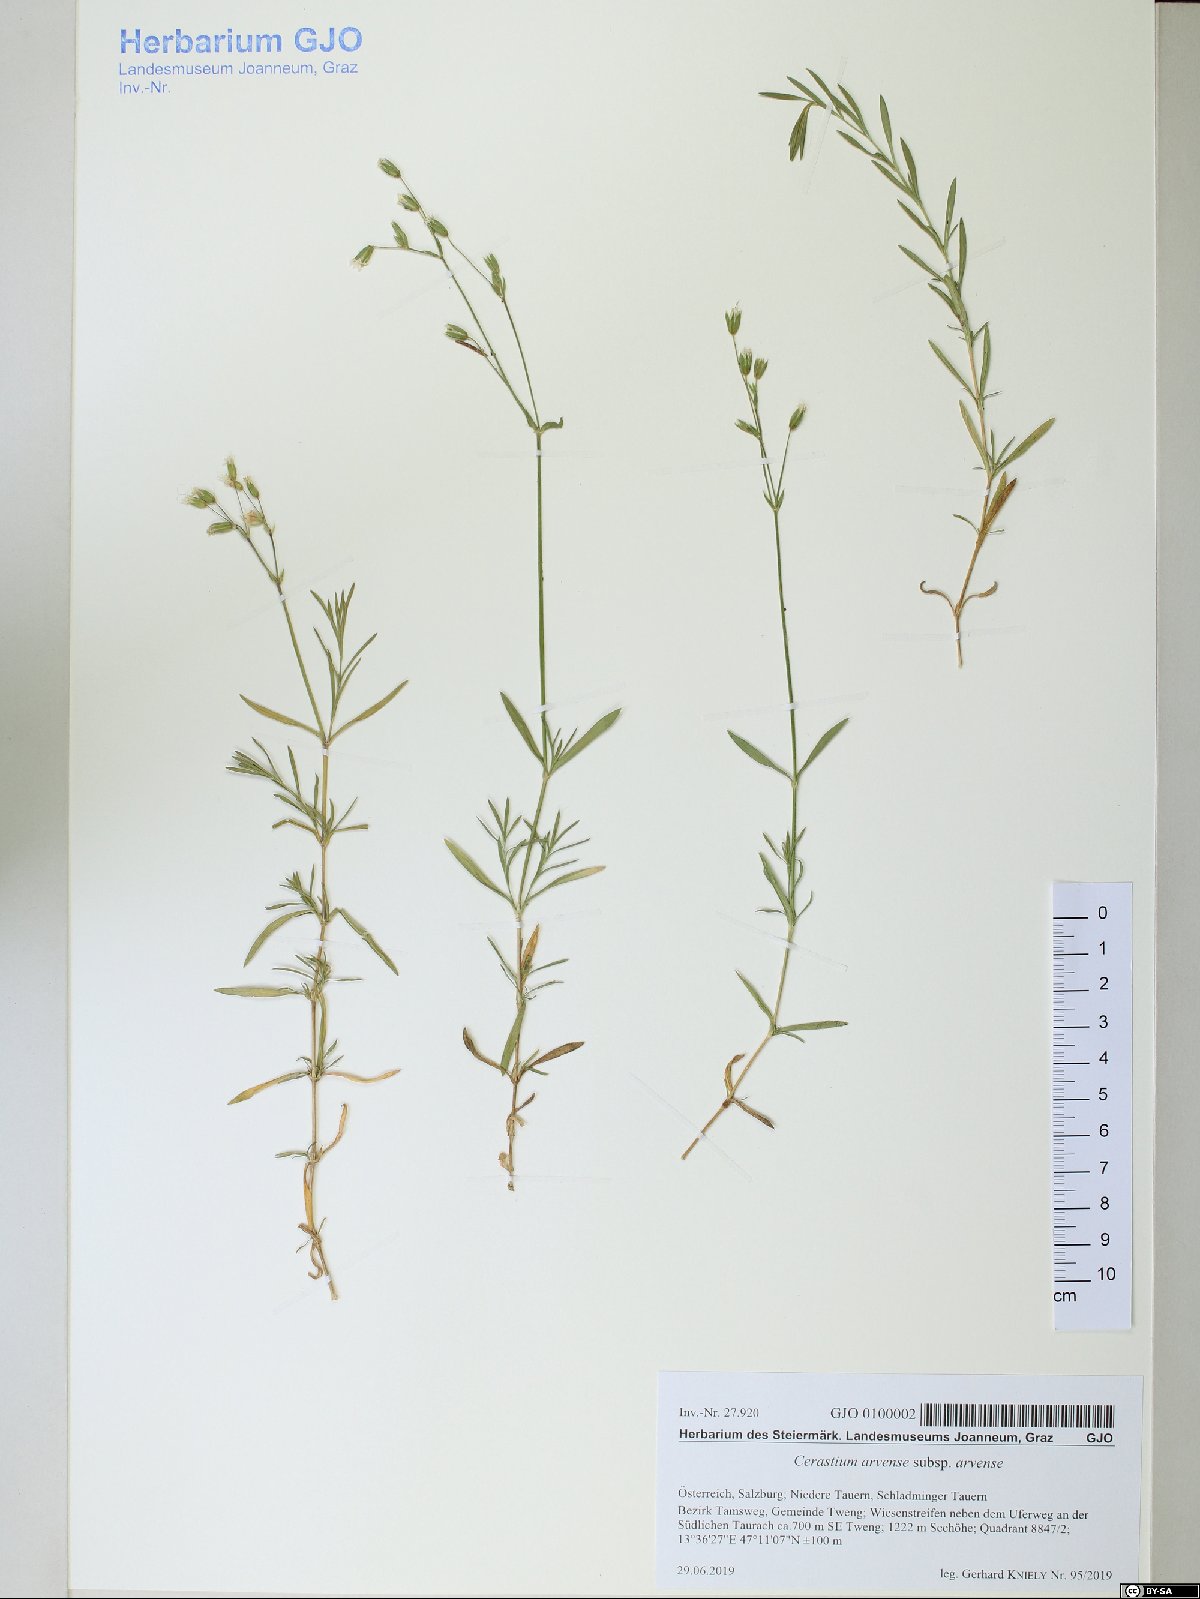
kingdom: Plantae
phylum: Tracheophyta
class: Magnoliopsida
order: Caryophyllales
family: Caryophyllaceae
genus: Cerastium
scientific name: Cerastium arvense
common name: Field mouse-ear
